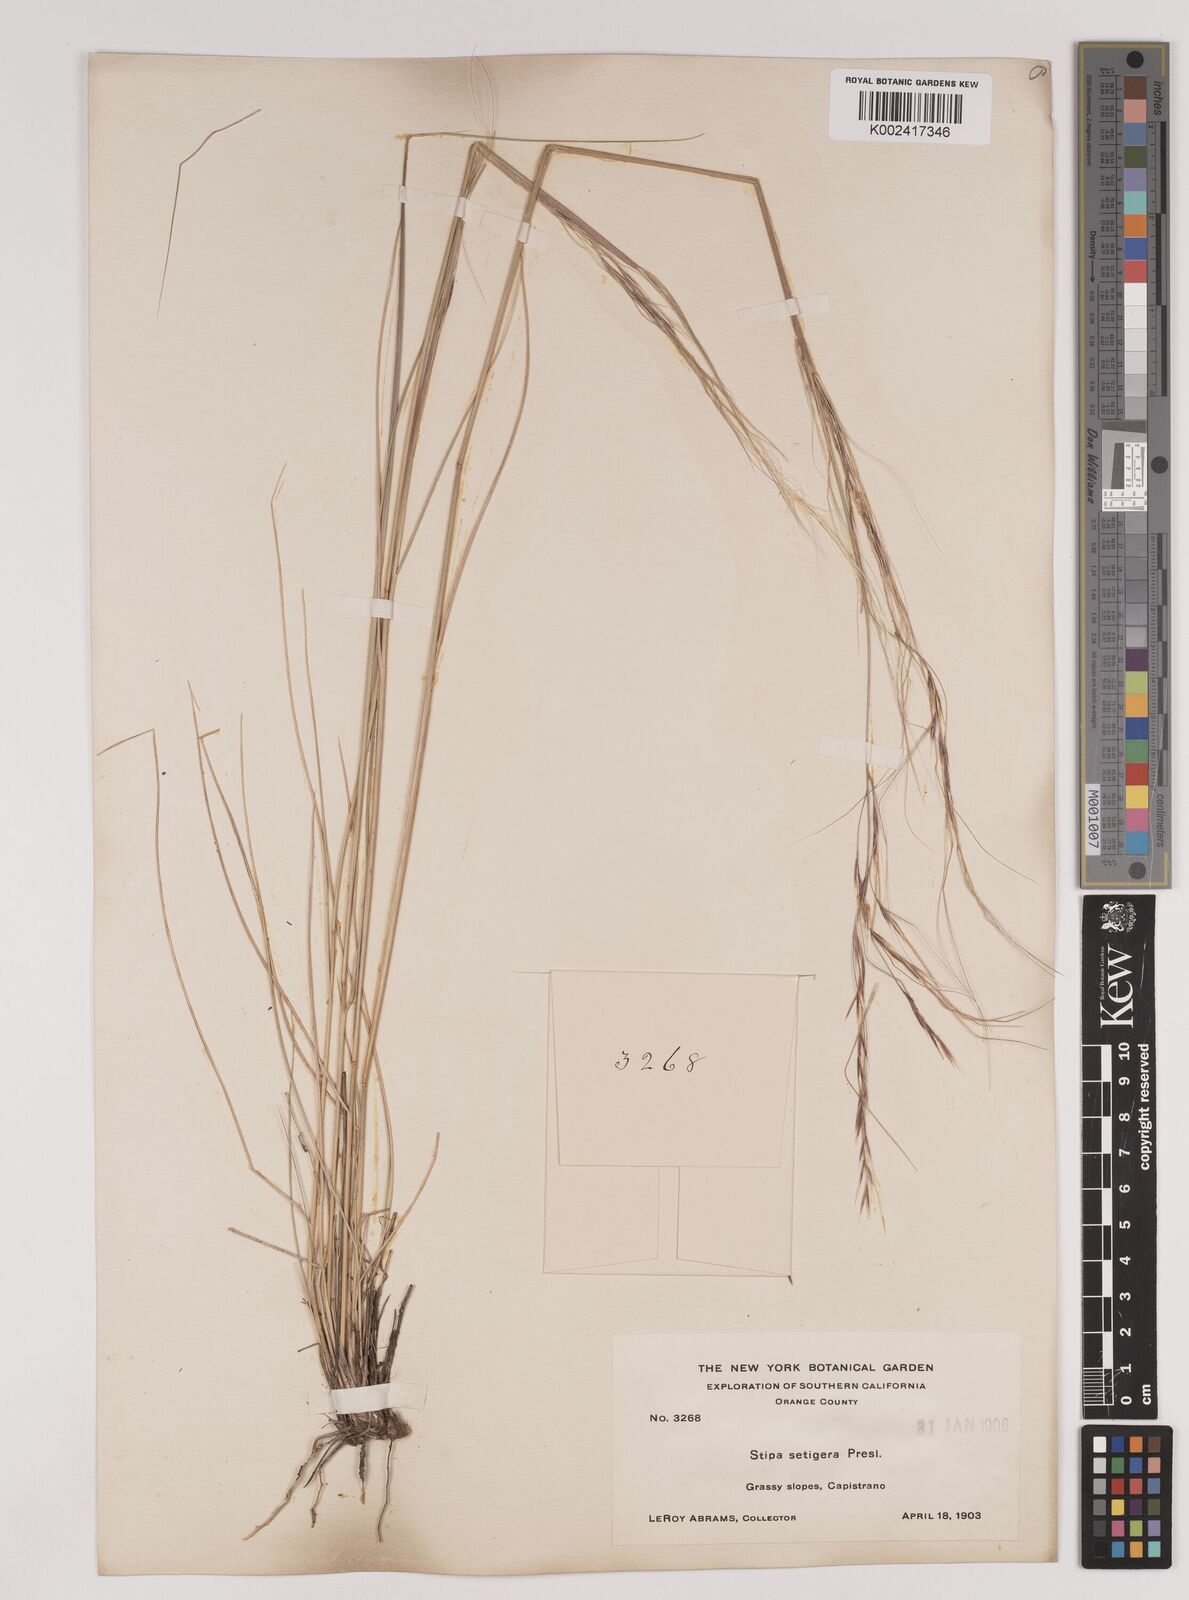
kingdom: Plantae
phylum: Tracheophyta
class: Liliopsida
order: Poales
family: Poaceae
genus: Nassella
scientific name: Nassella pulchra
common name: Purple needlegrass
